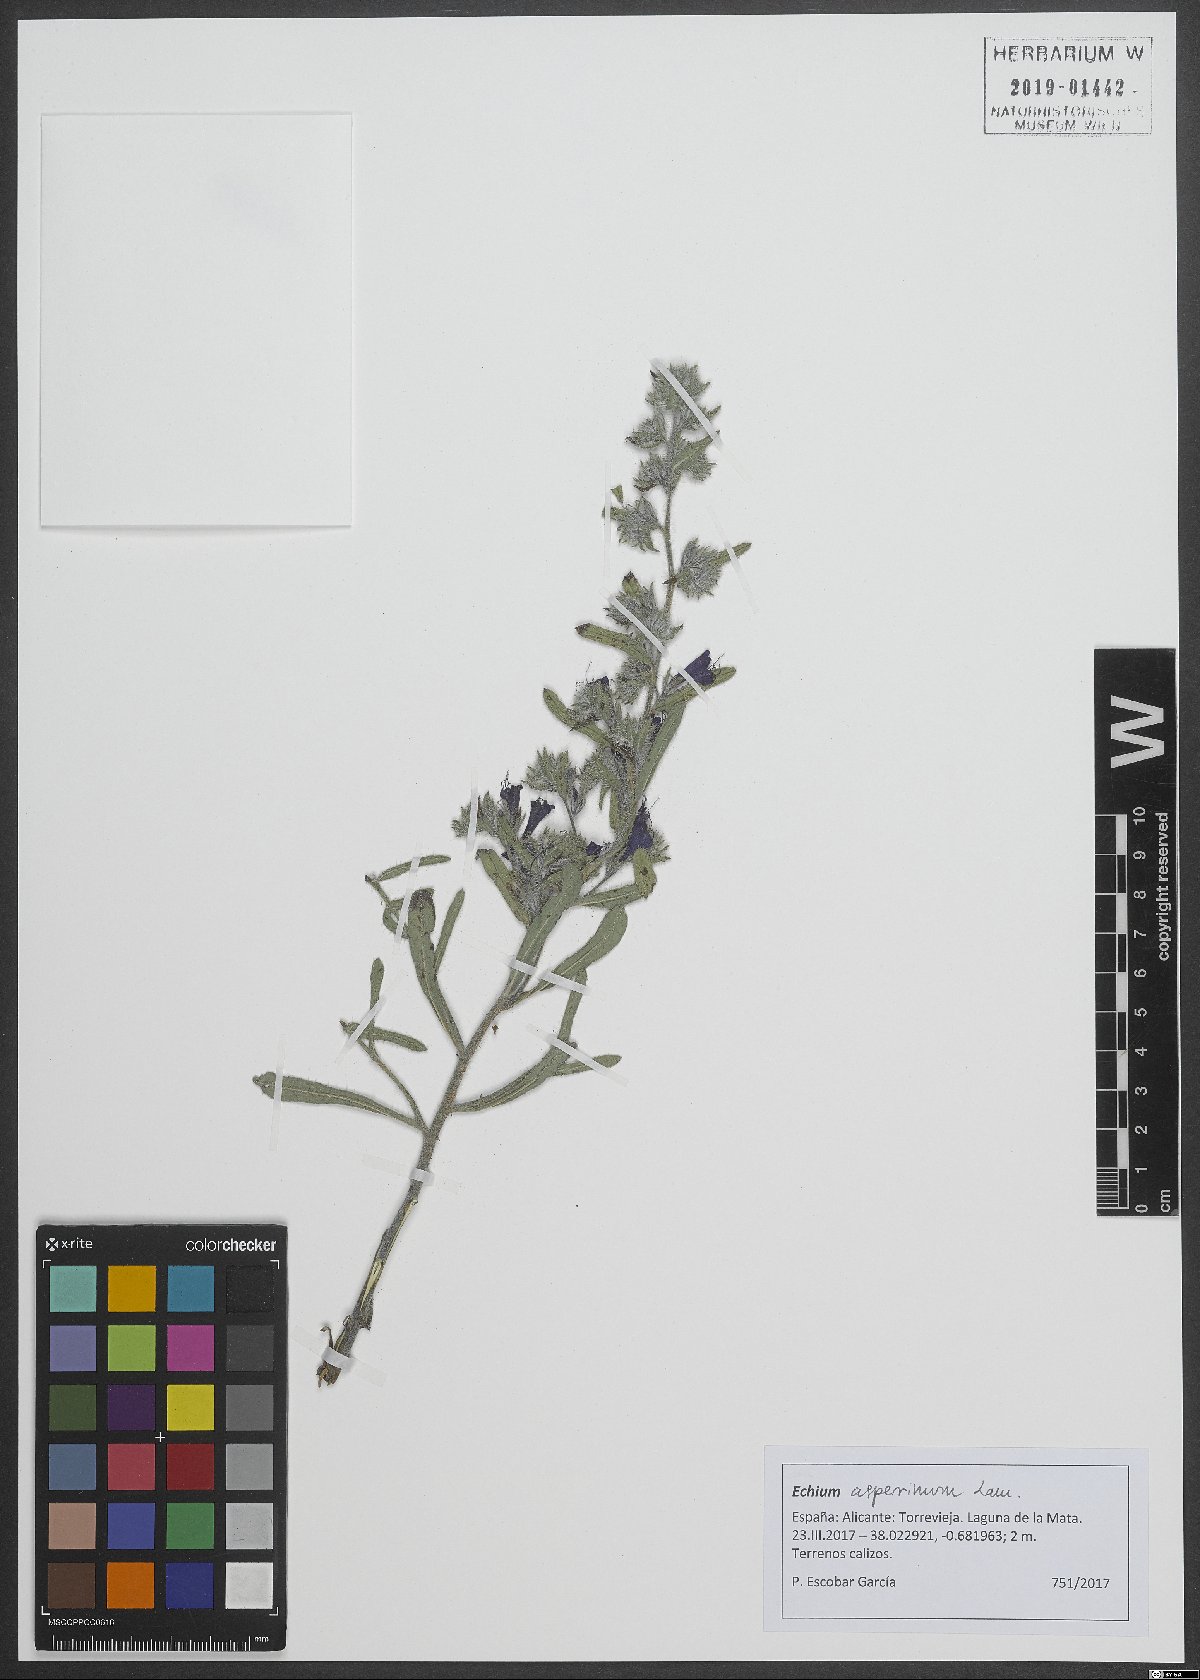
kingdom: Plantae
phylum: Tracheophyta
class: Magnoliopsida
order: Boraginales
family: Boraginaceae
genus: Echium
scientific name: Echium asperrimum
